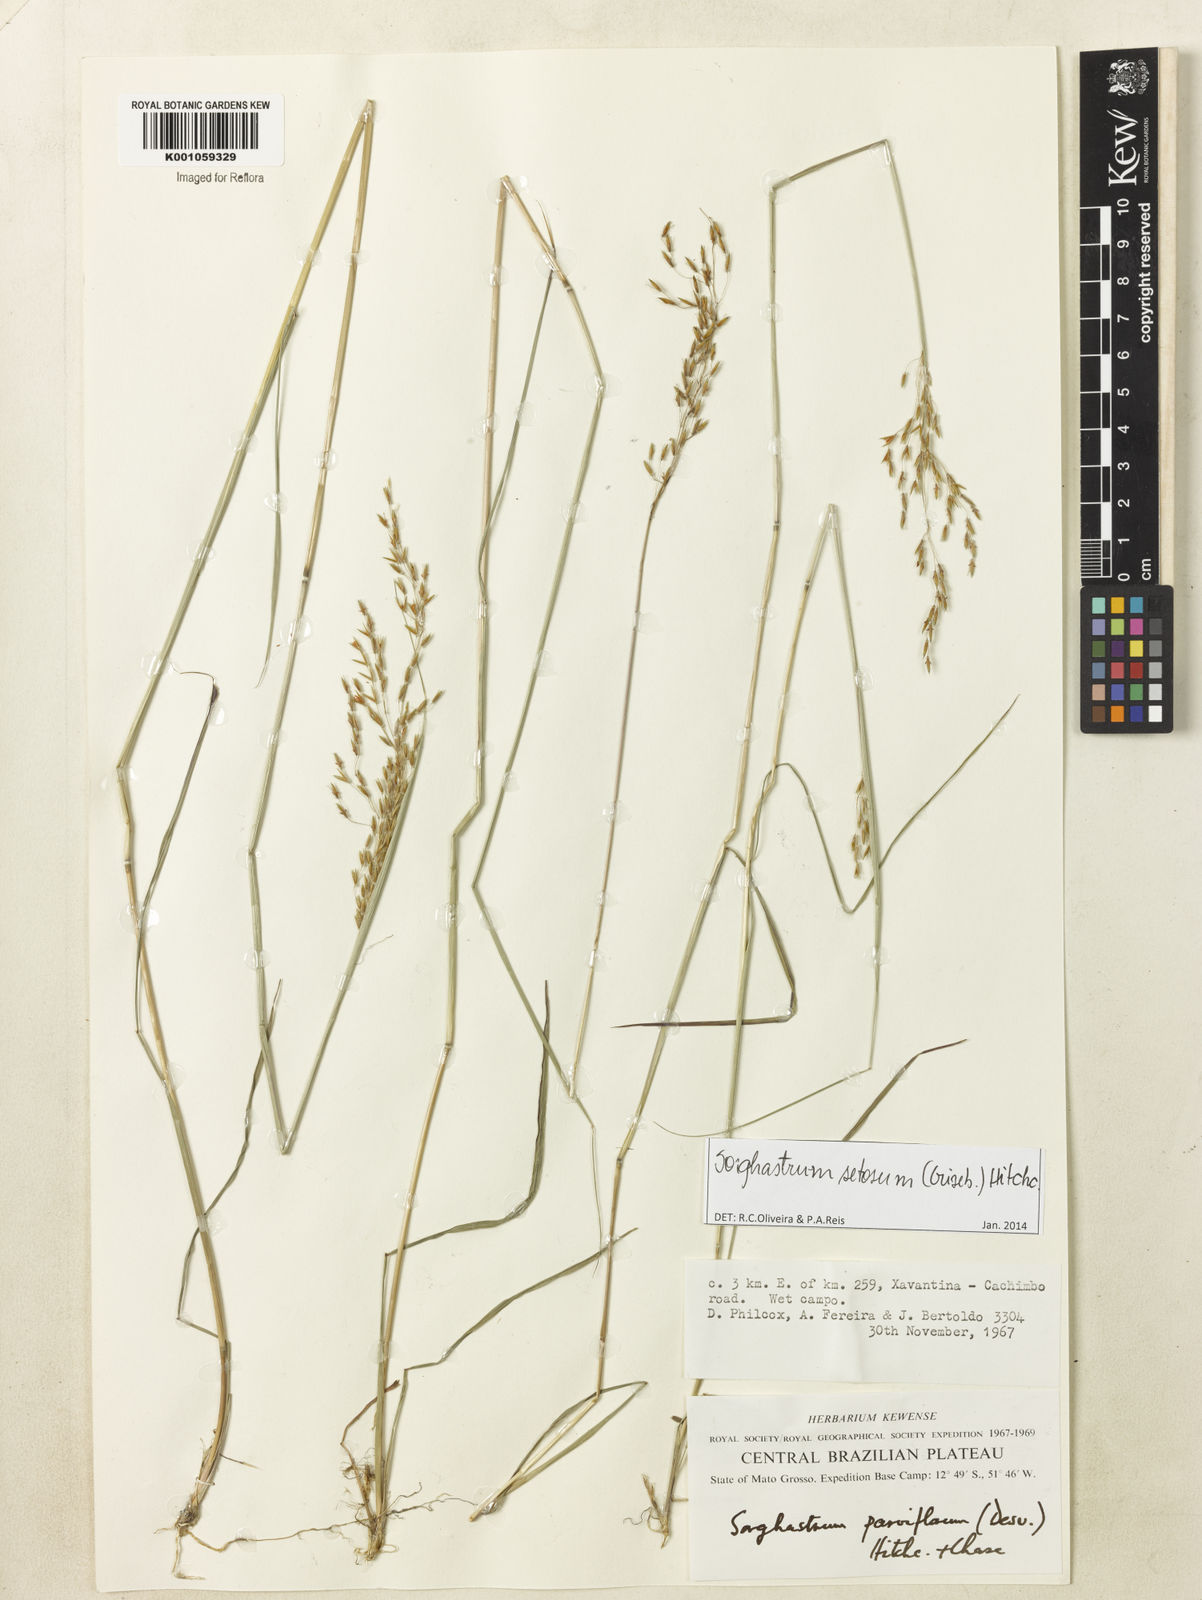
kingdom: Plantae
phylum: Tracheophyta
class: Liliopsida
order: Poales
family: Poaceae
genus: Sorghastrum
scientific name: Sorghastrum setosum
